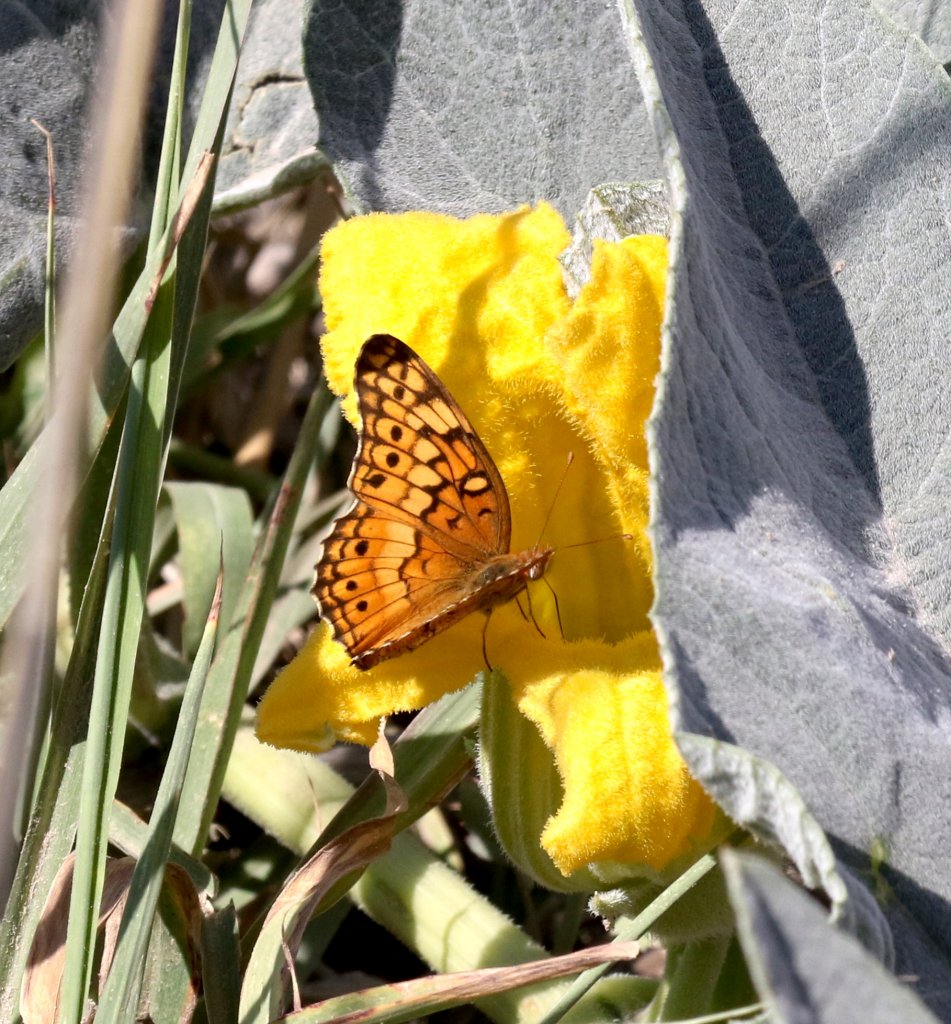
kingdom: Animalia
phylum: Arthropoda
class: Insecta
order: Lepidoptera
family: Nymphalidae
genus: Euptoieta
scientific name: Euptoieta claudia
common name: Variegated Fritillary
